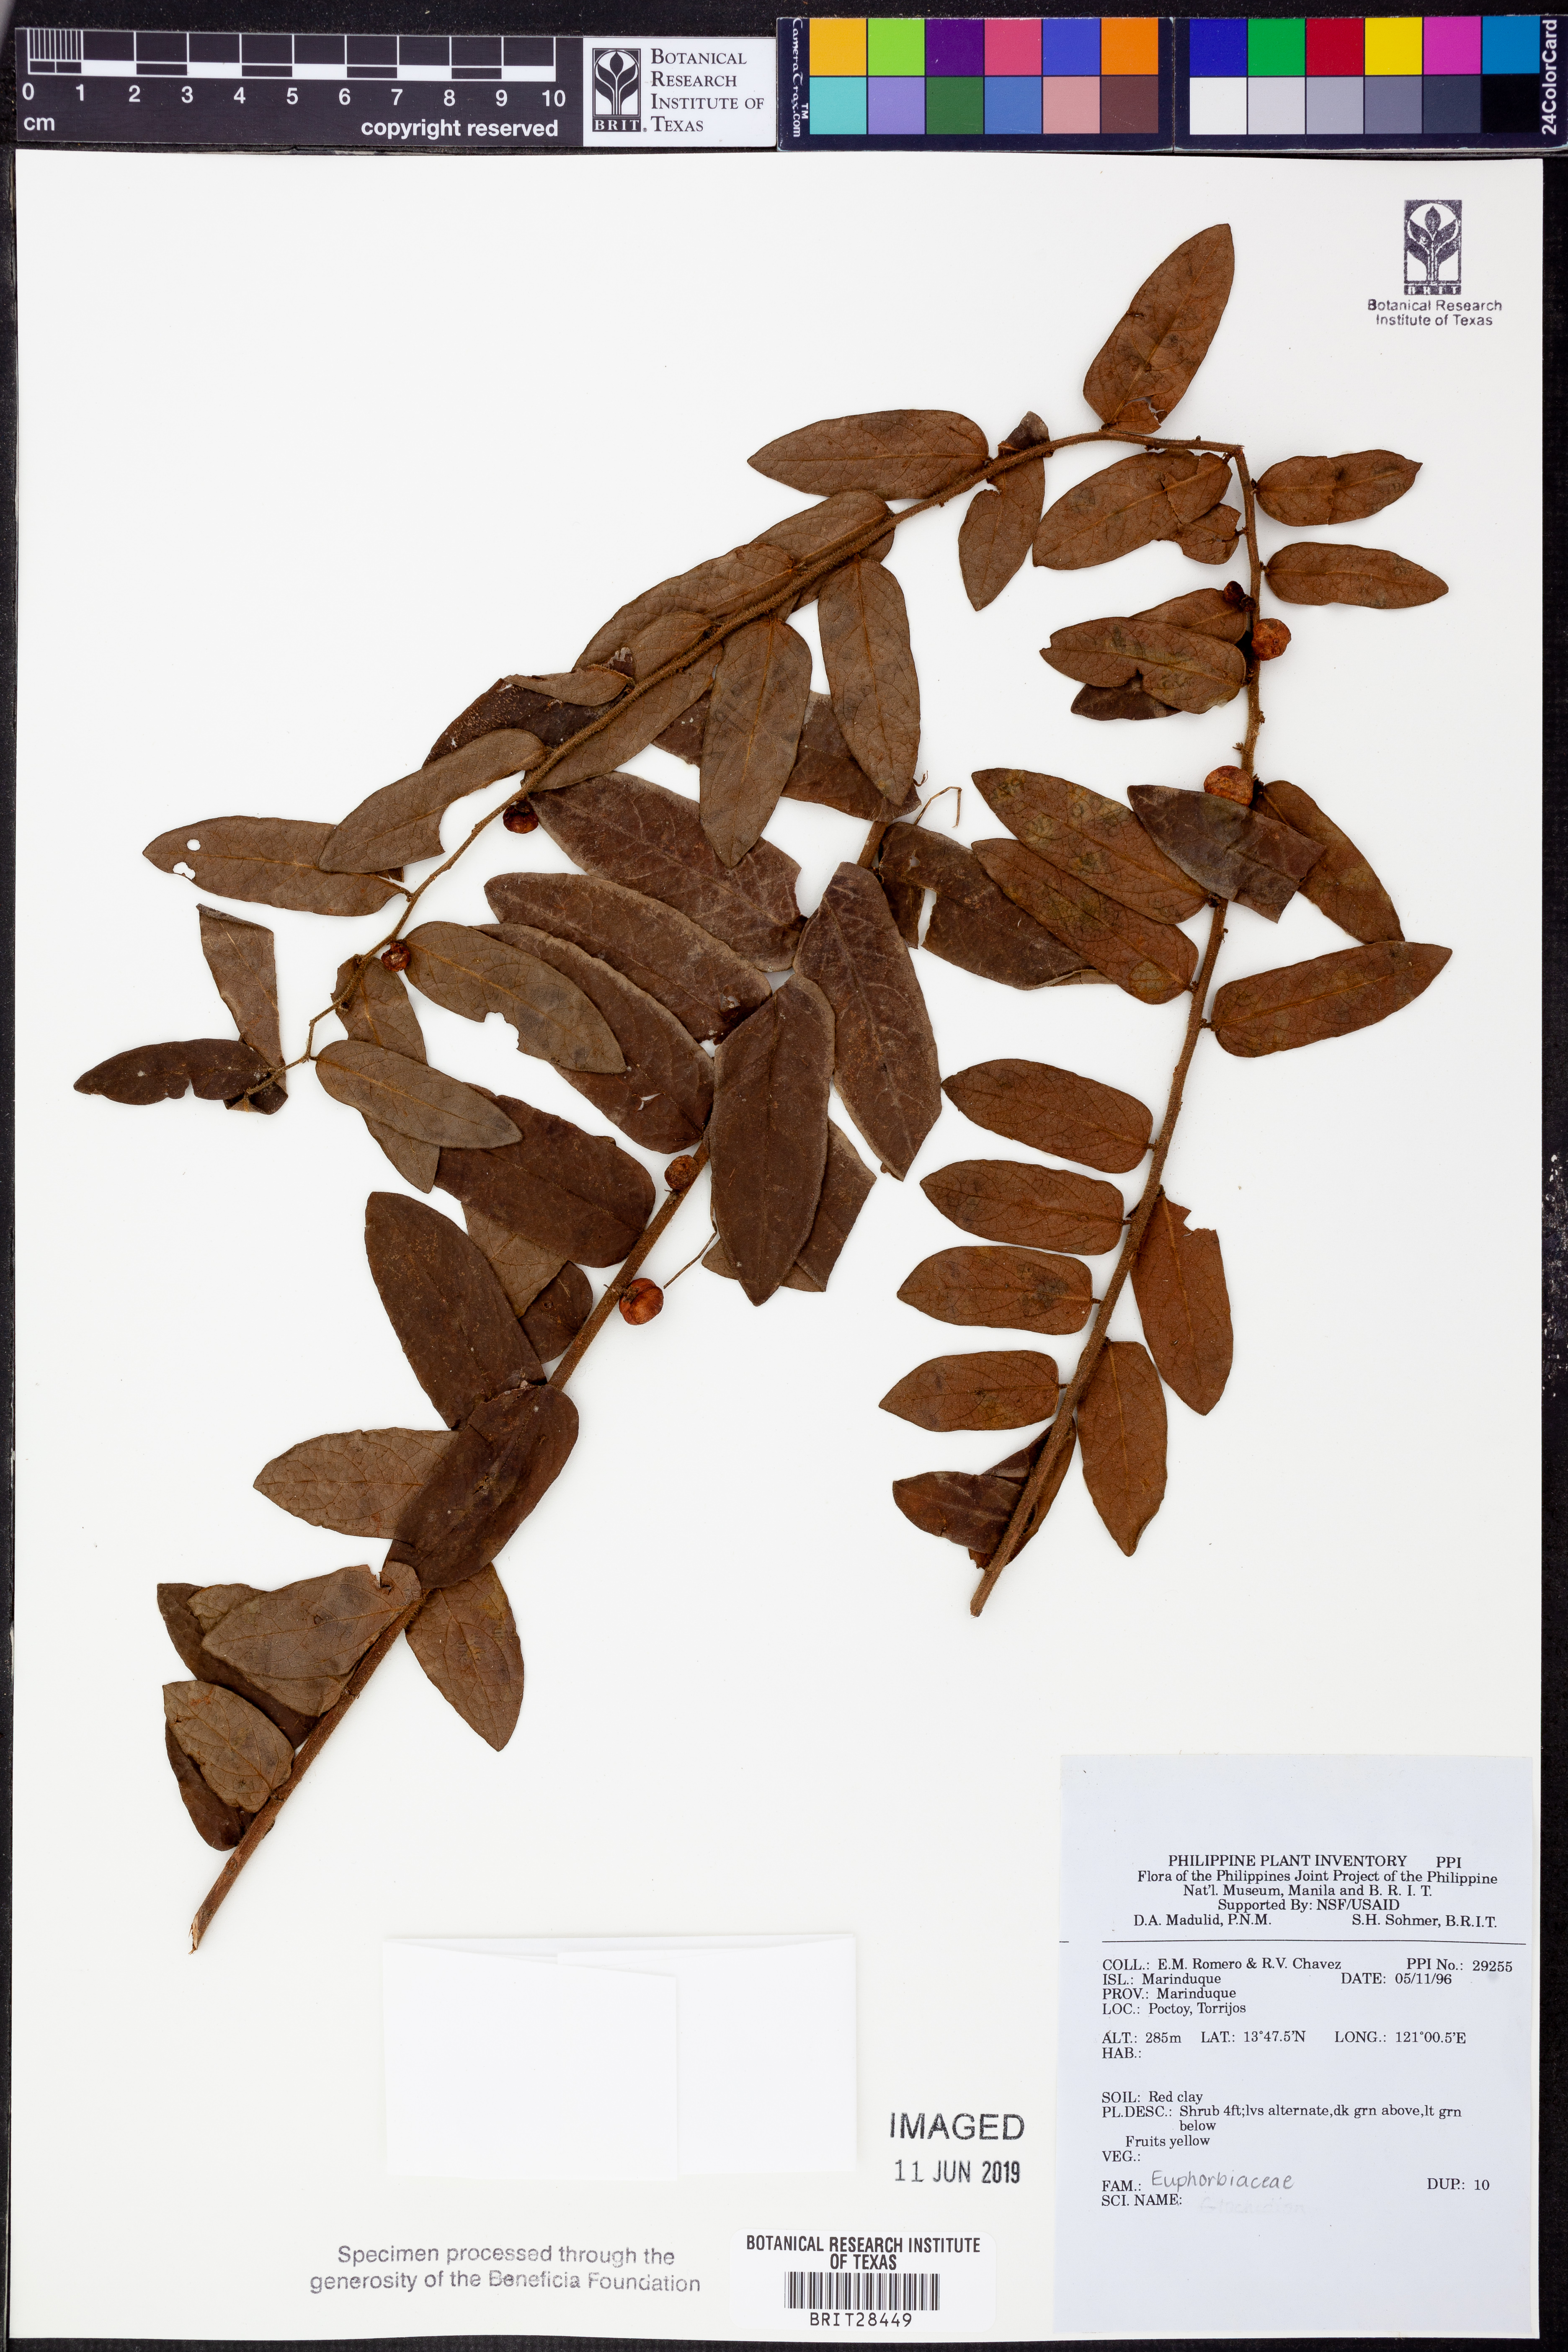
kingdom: Plantae
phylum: Tracheophyta
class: Magnoliopsida
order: Malpighiales
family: Euphorbiaceae
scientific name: Euphorbiaceae
